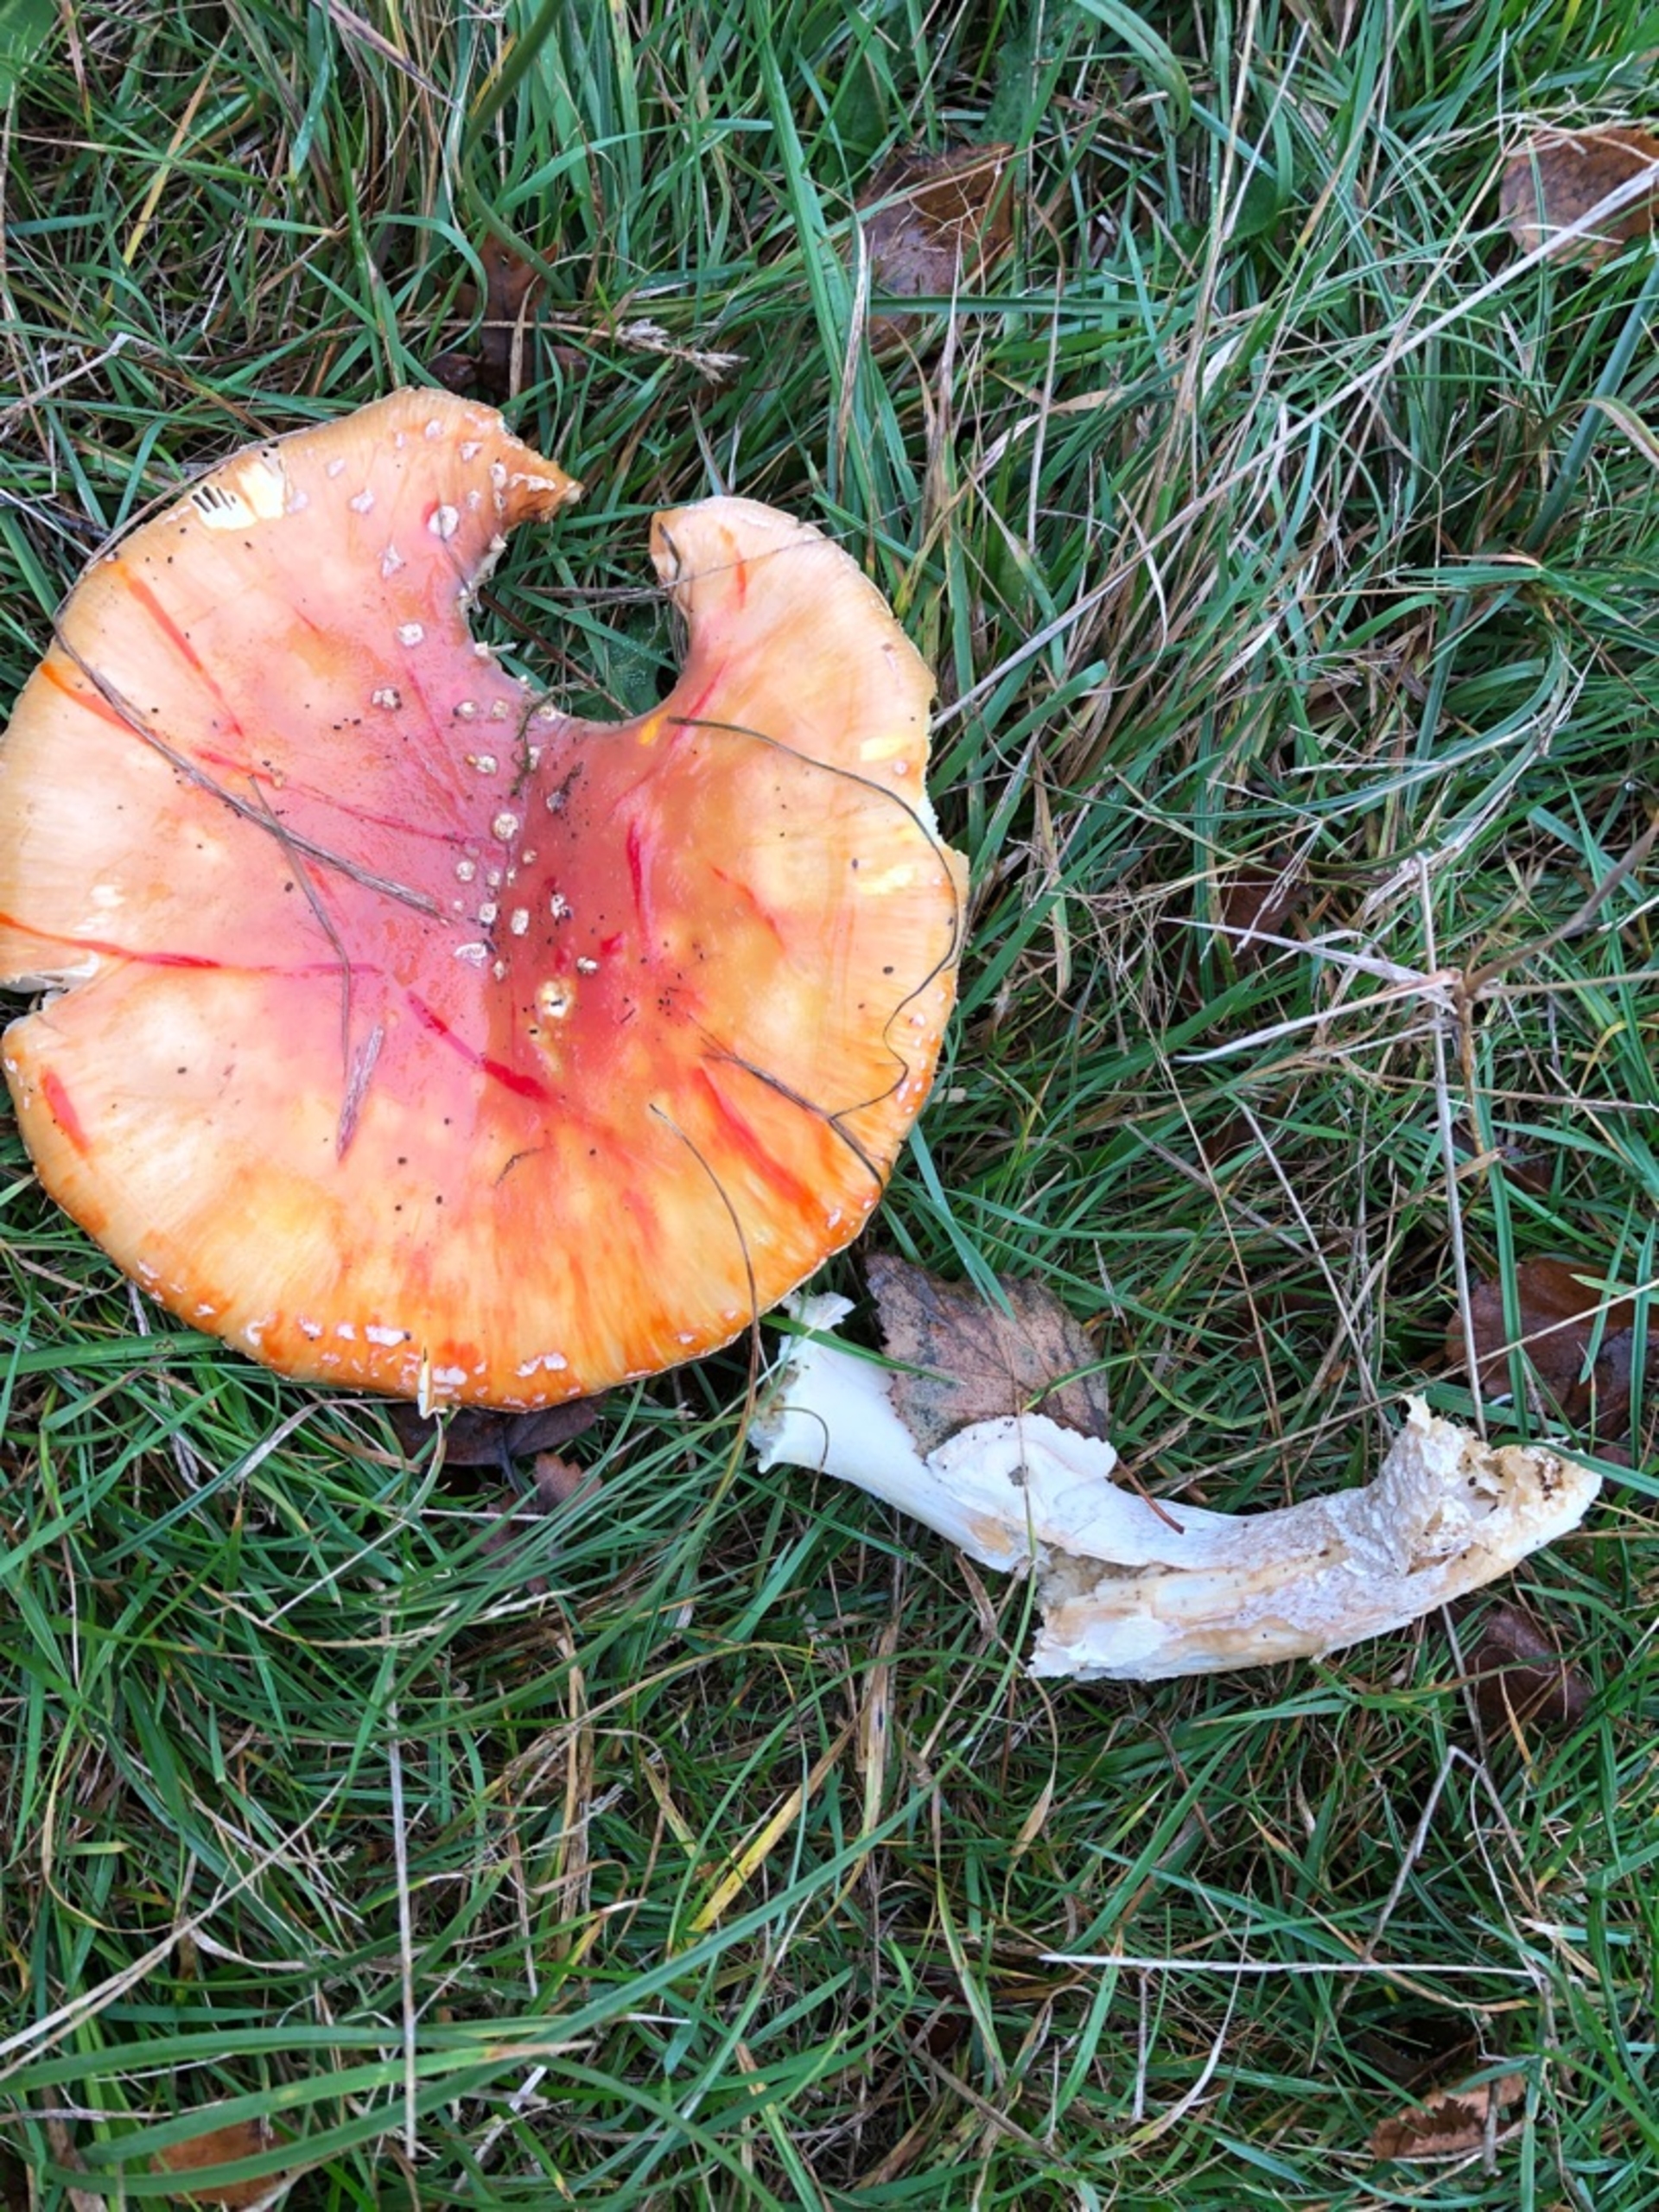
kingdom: Fungi
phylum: Basidiomycota
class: Agaricomycetes
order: Agaricales
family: Amanitaceae
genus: Amanita
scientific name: Amanita muscaria
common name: Rød fluesvamp
